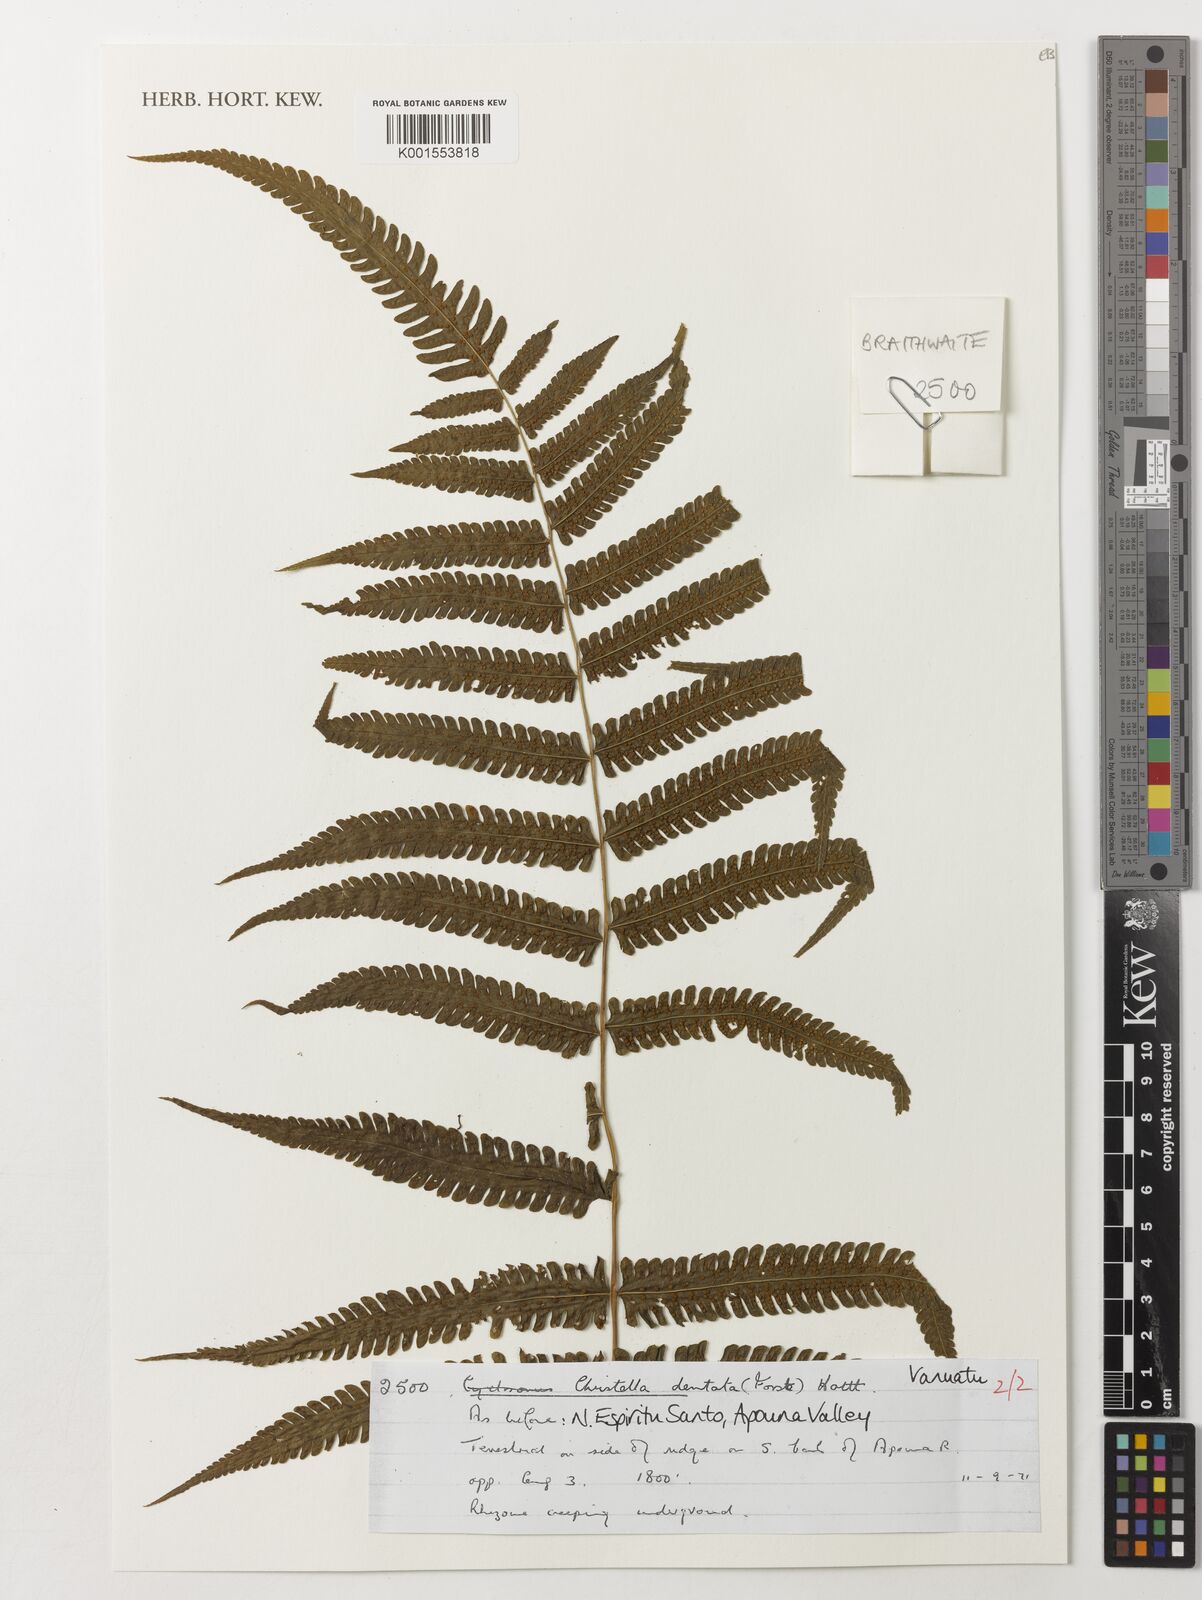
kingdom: Plantae
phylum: Tracheophyta
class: Polypodiopsida
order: Polypodiales
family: Thelypteridaceae
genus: Christella
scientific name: Christella dentata
